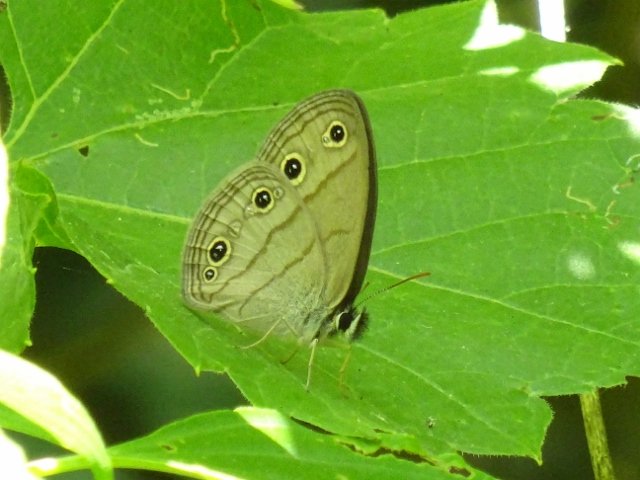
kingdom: Animalia
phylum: Arthropoda
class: Insecta
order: Lepidoptera
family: Nymphalidae
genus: Euptychia
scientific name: Euptychia cymela
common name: Little Wood Satyr
